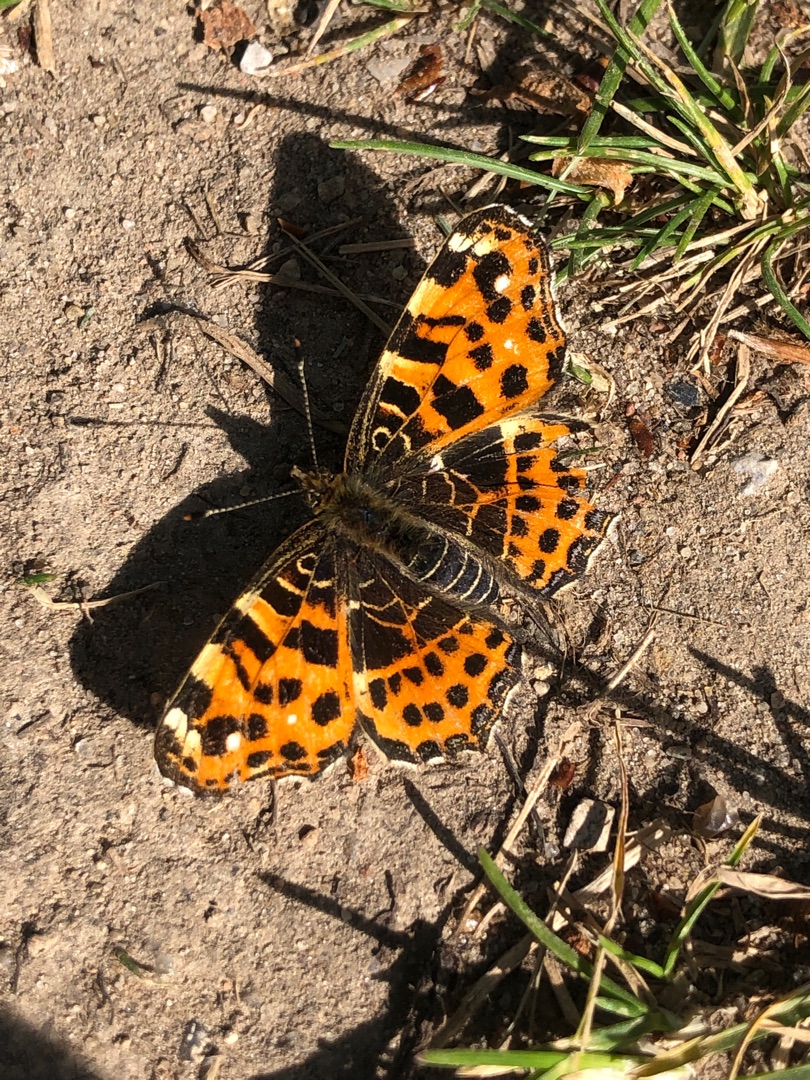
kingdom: Animalia
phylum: Arthropoda
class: Insecta
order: Lepidoptera
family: Nymphalidae
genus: Araschnia
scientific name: Araschnia levana
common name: Nældesommerfugl
